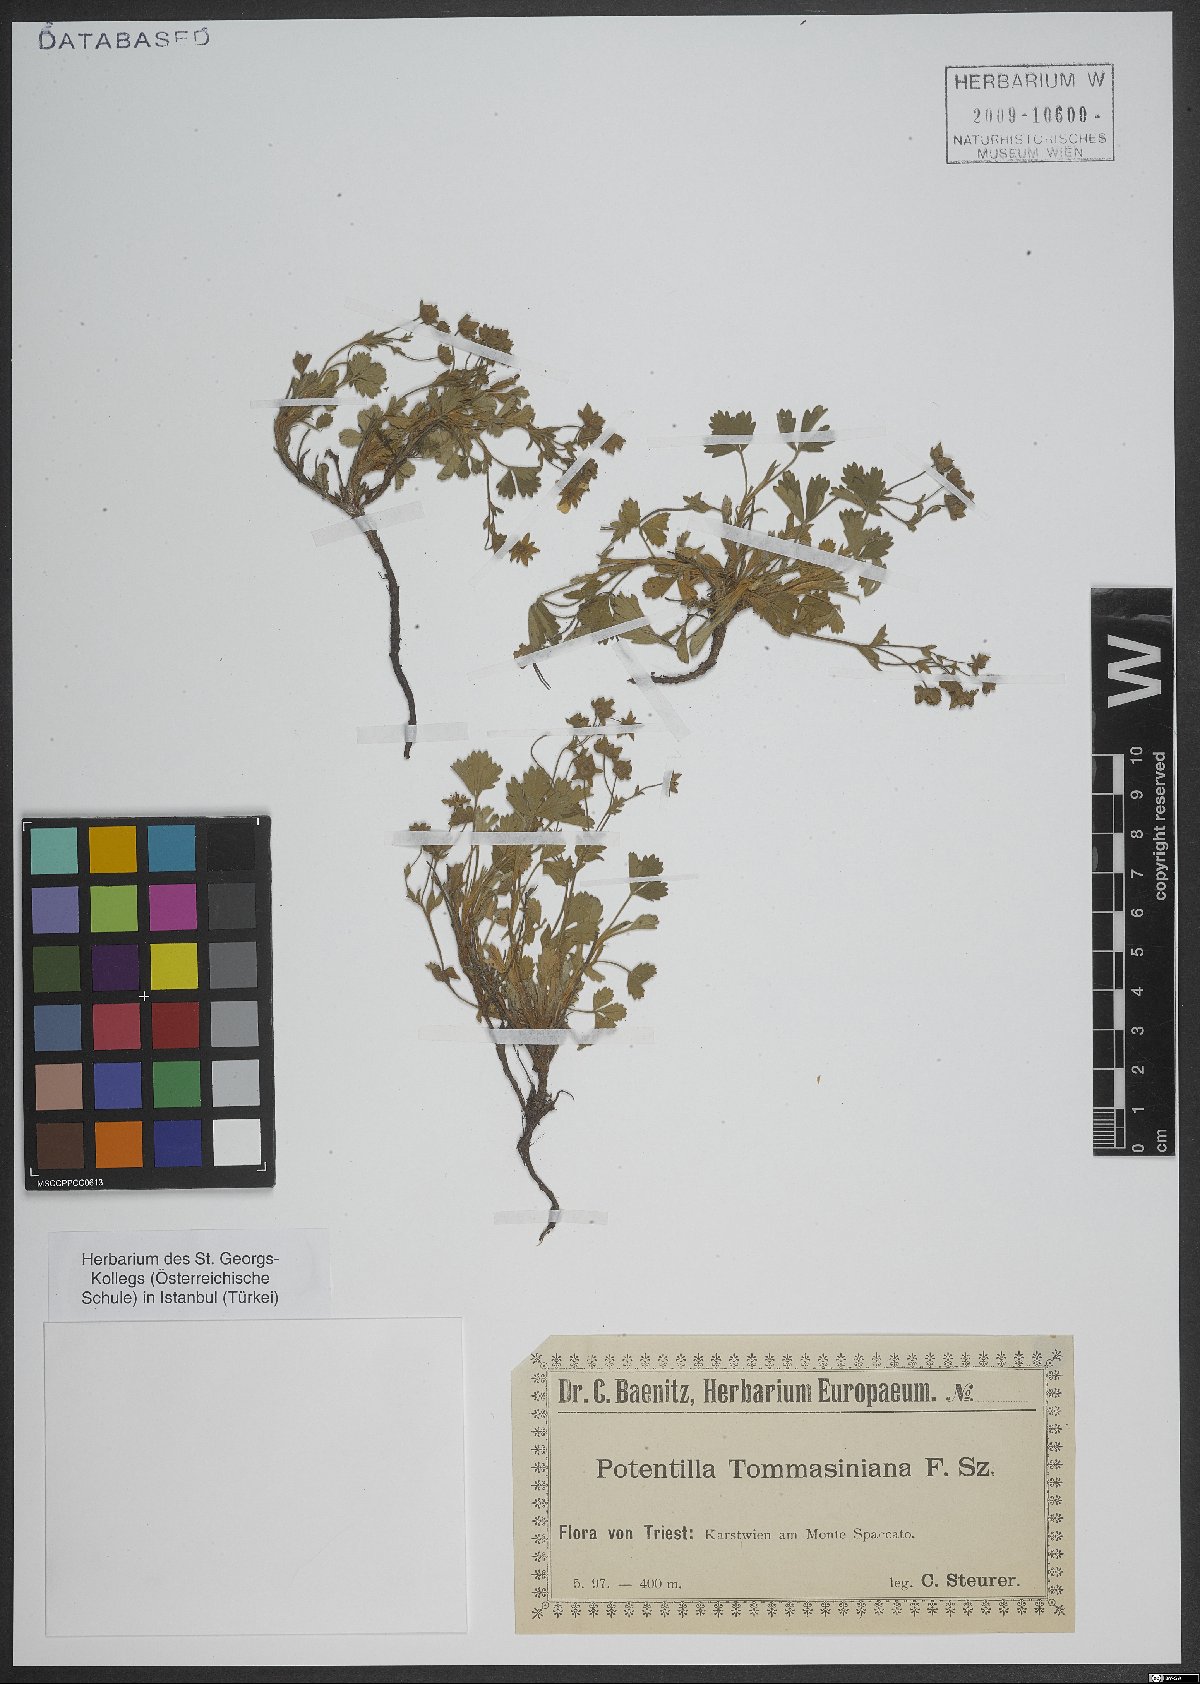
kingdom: Plantae
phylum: Tracheophyta
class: Magnoliopsida
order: Rosales
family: Rosaceae
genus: Potentilla
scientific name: Potentilla cinerea
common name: Ashy cinquefoil
